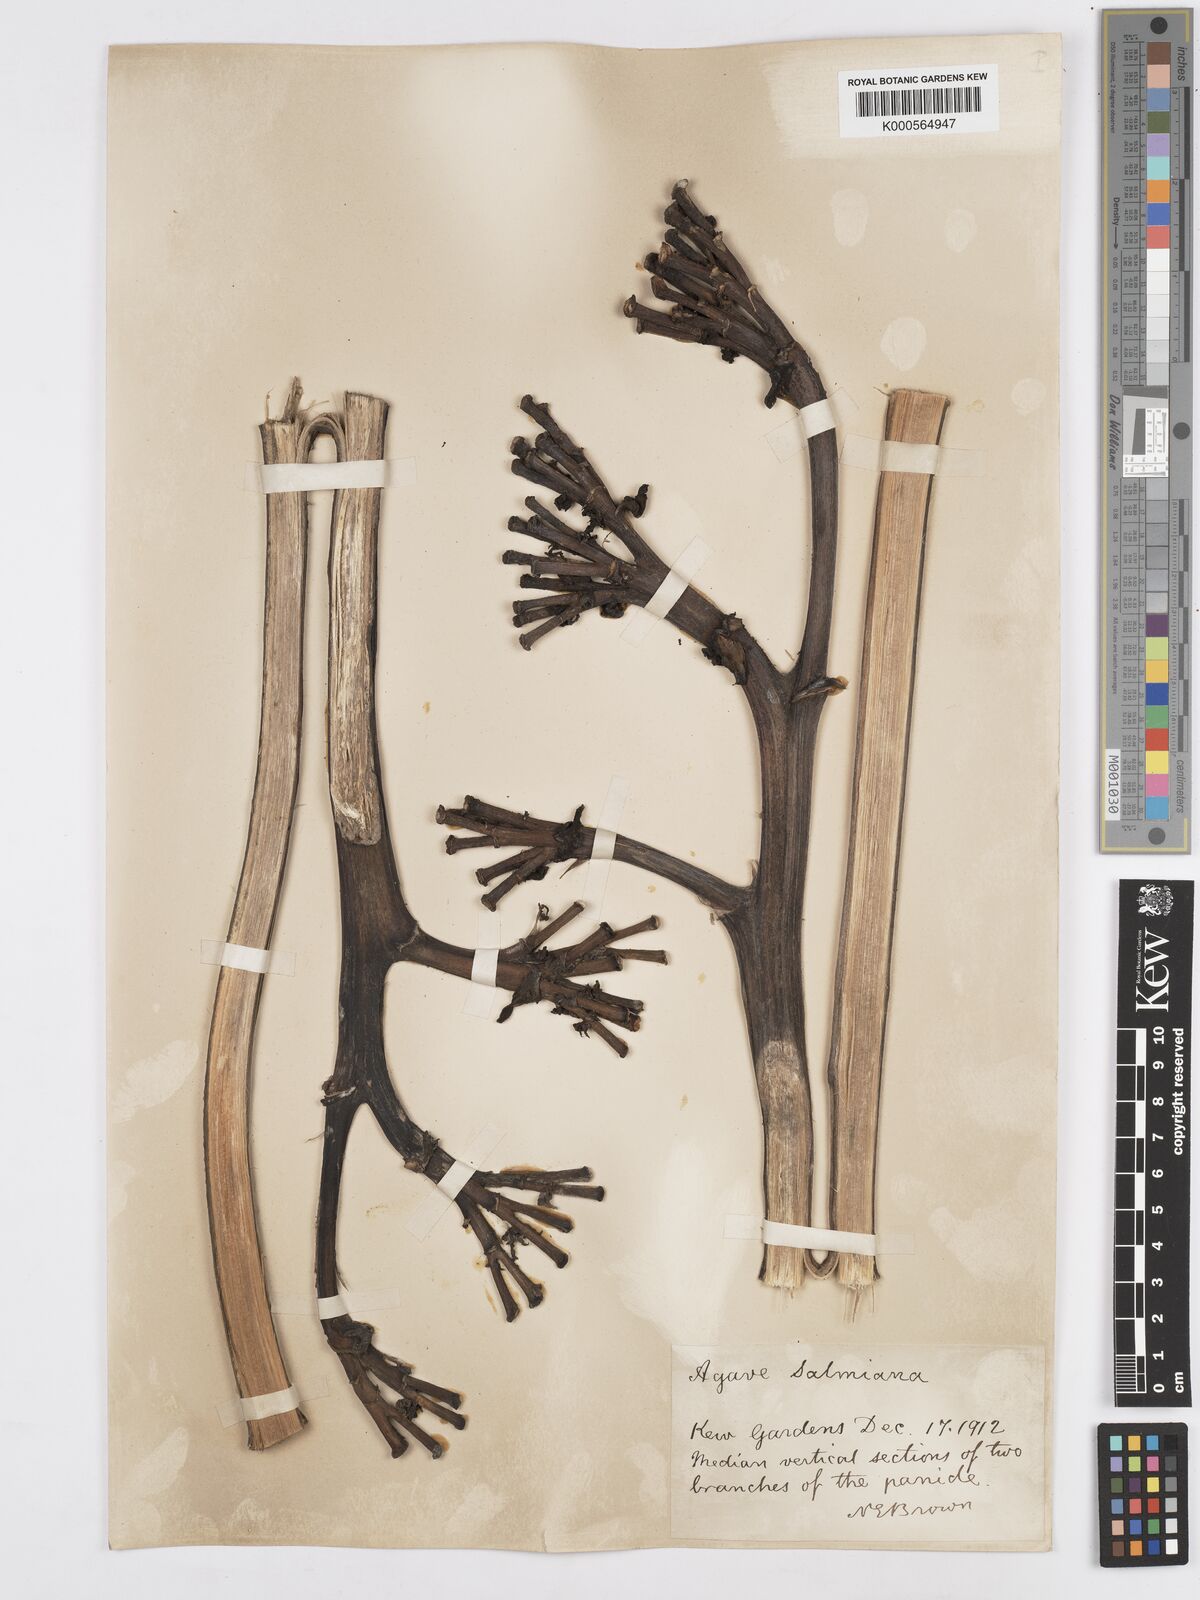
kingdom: Plantae
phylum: Tracheophyta
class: Liliopsida
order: Asparagales
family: Asparagaceae
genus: Agave
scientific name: Agave salmiana
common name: Pulque agave
